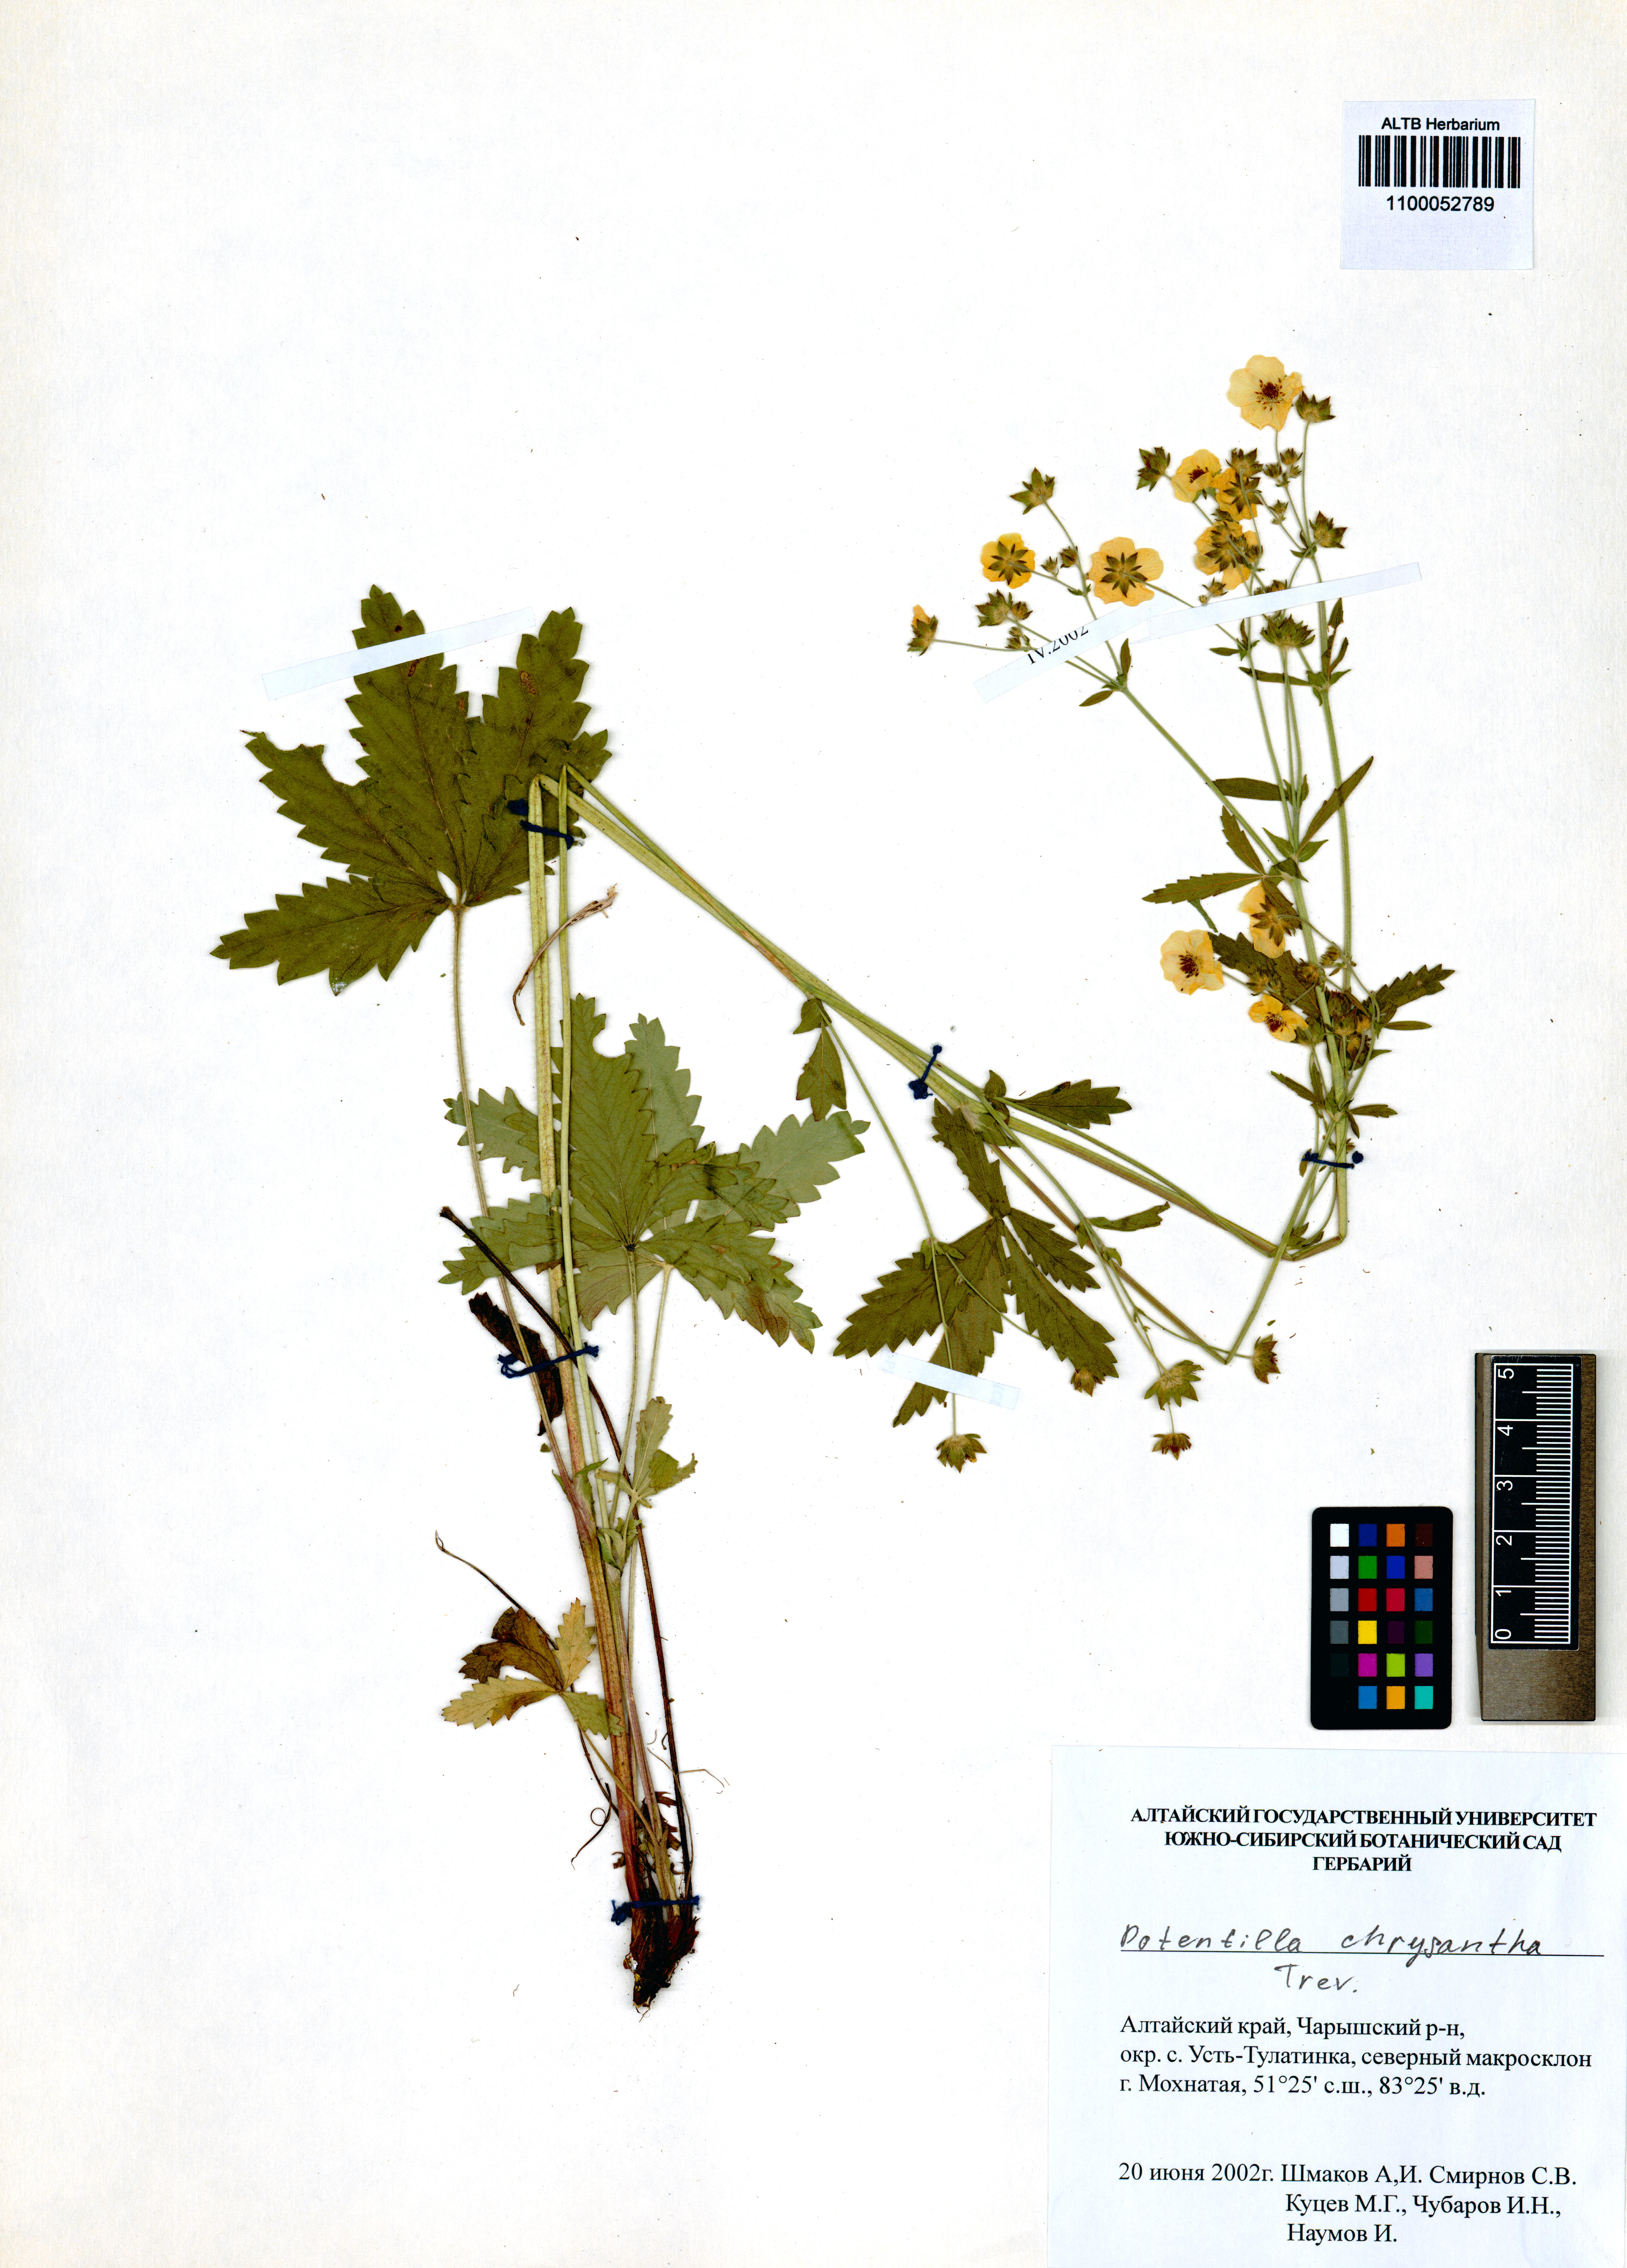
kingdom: Plantae
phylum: Tracheophyta
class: Magnoliopsida
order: Rosales
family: Rosaceae
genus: Potentilla
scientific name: Potentilla chrysantha
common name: Thuringian cinquefoil
